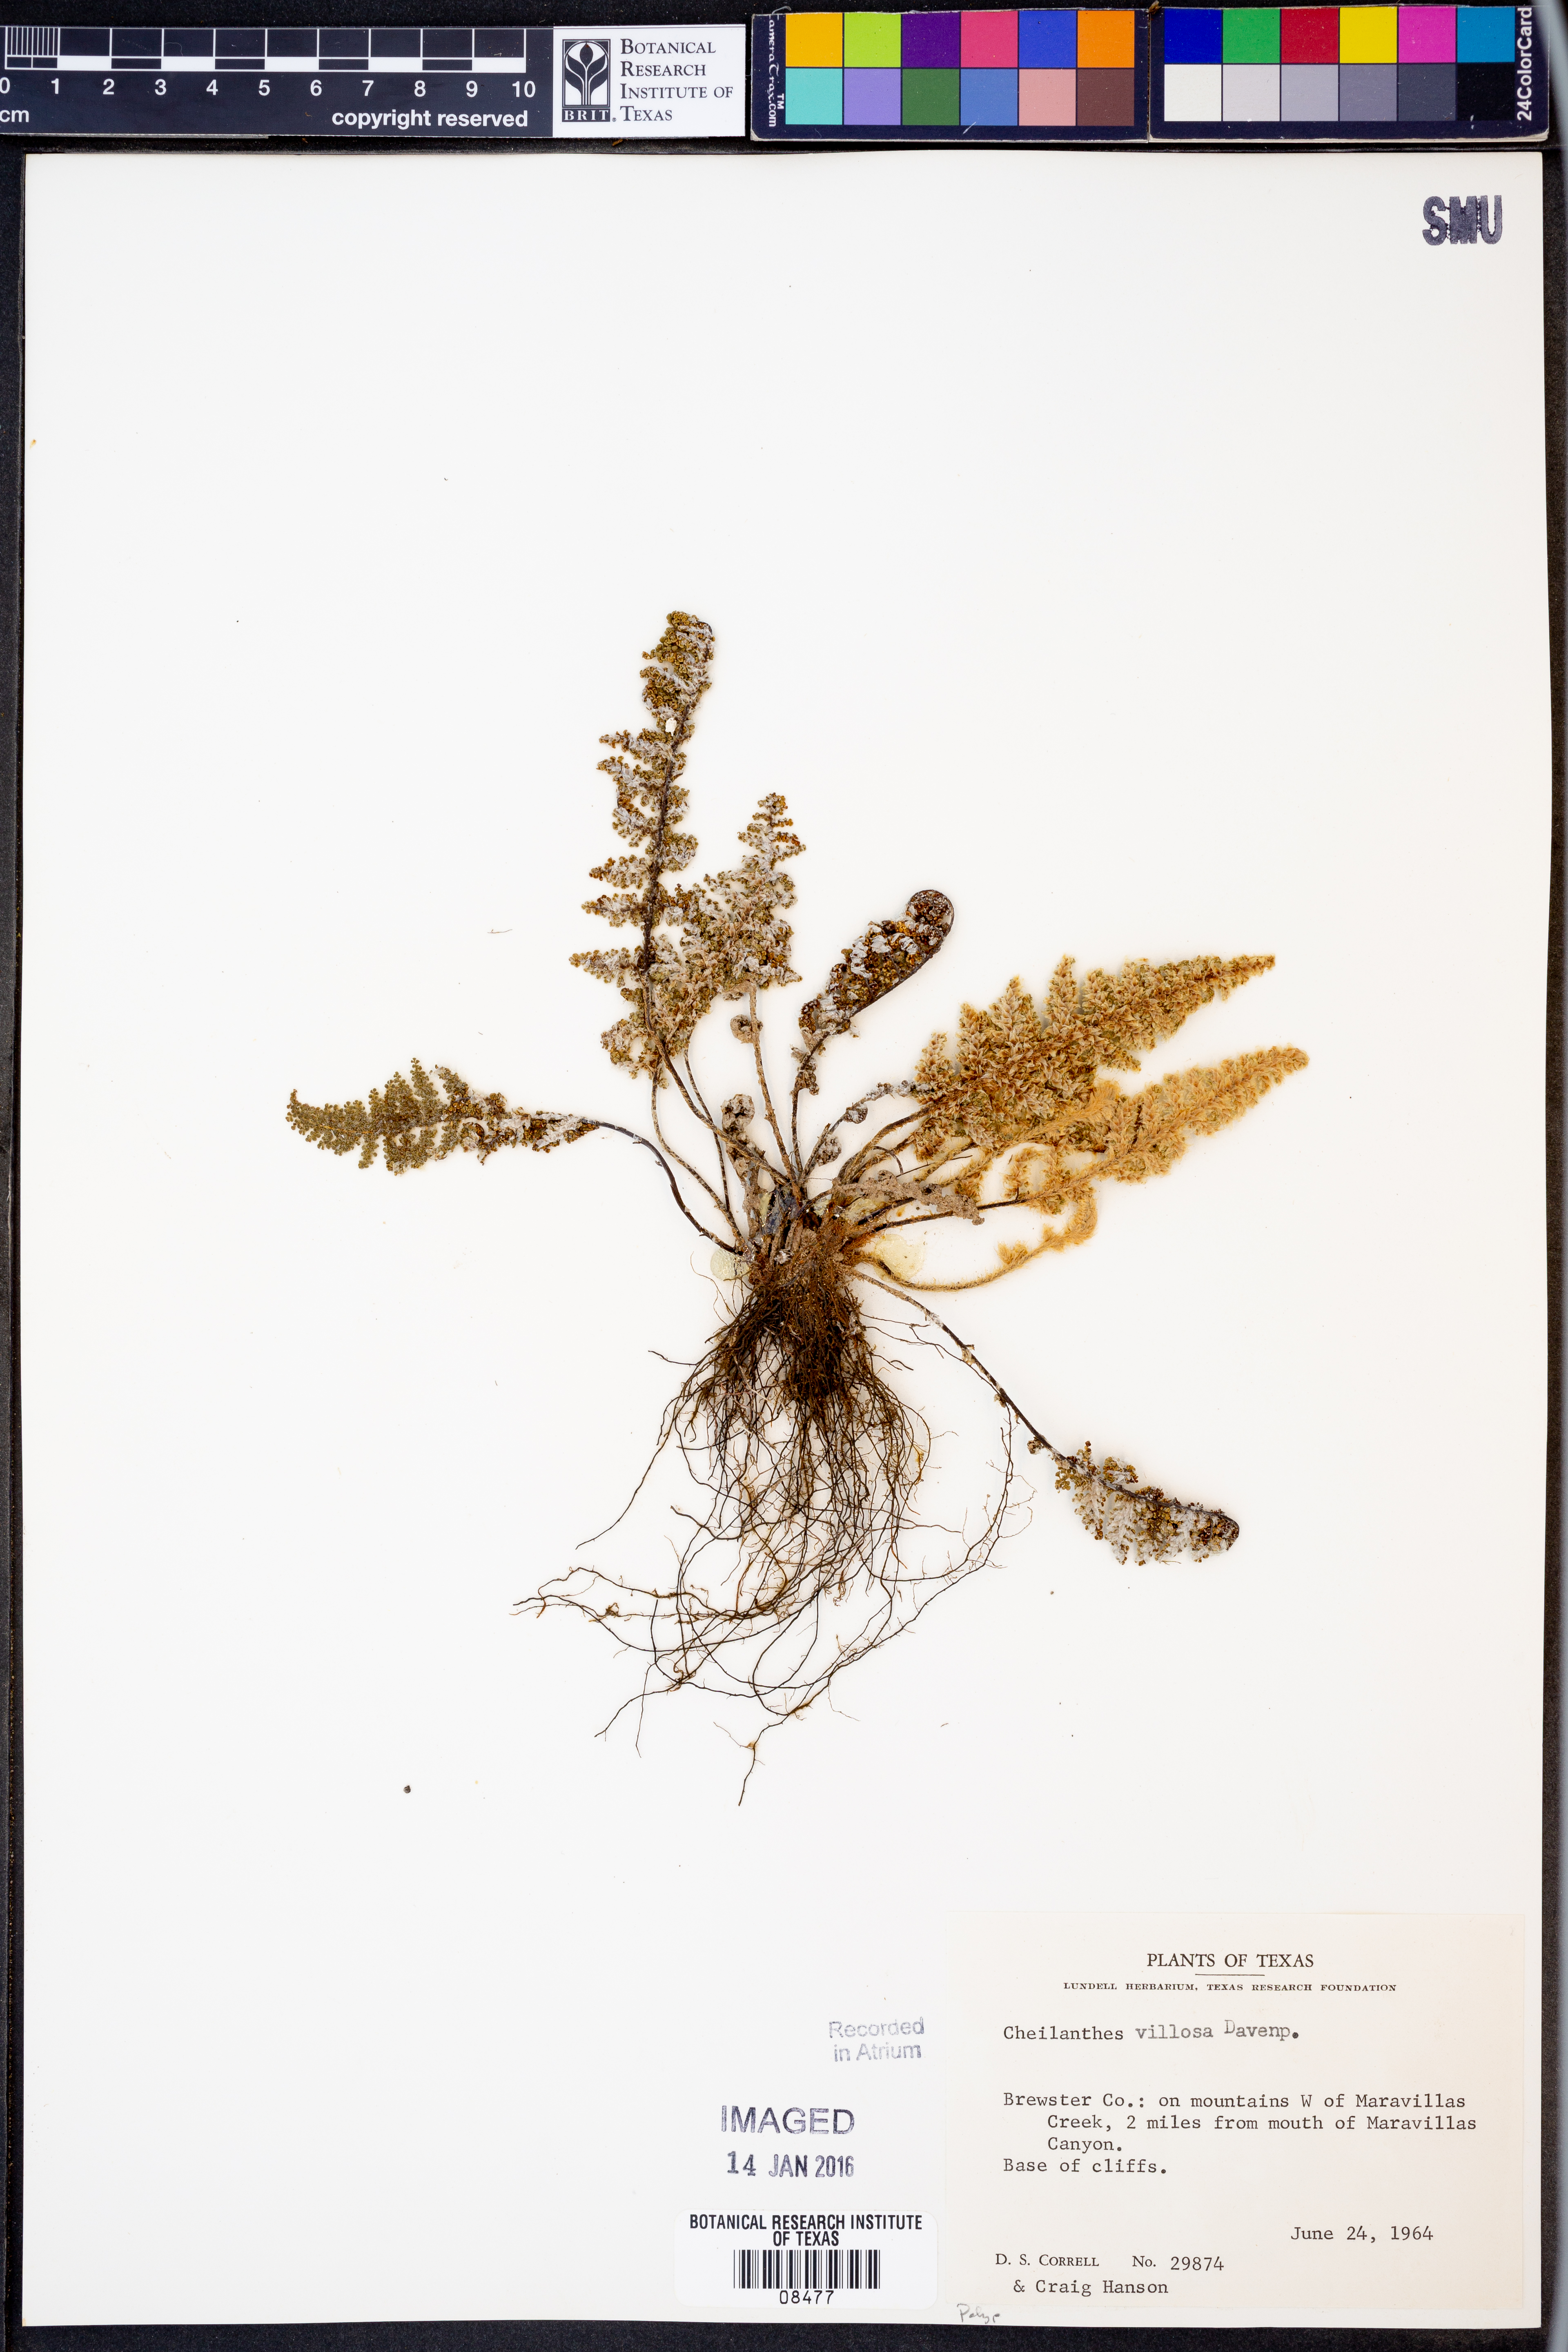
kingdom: Plantae
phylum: Tracheophyta
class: Polypodiopsida
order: Polypodiales
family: Pteridaceae
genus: Myriopteris
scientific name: Myriopteris windhamii
